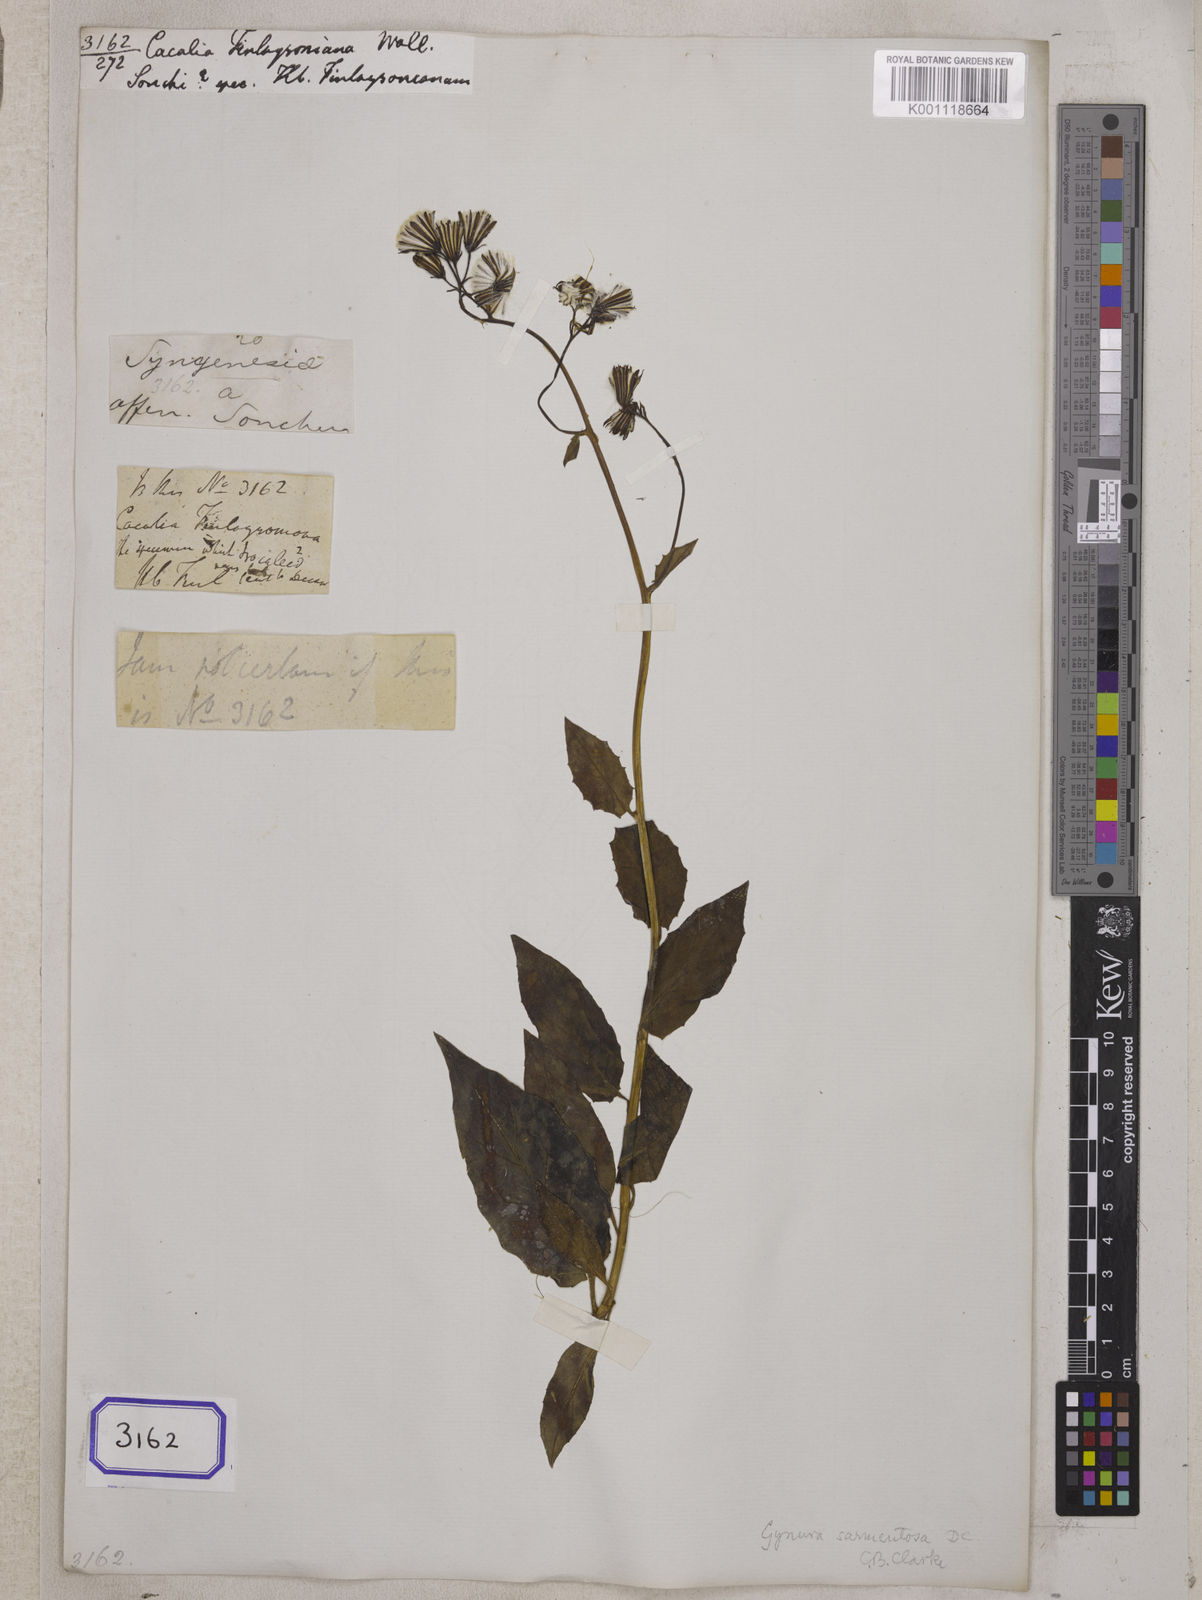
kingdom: Plantae
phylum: Tracheophyta
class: Magnoliopsida
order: Asterales
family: Asteraceae
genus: Gynura
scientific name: Gynura procumbens
